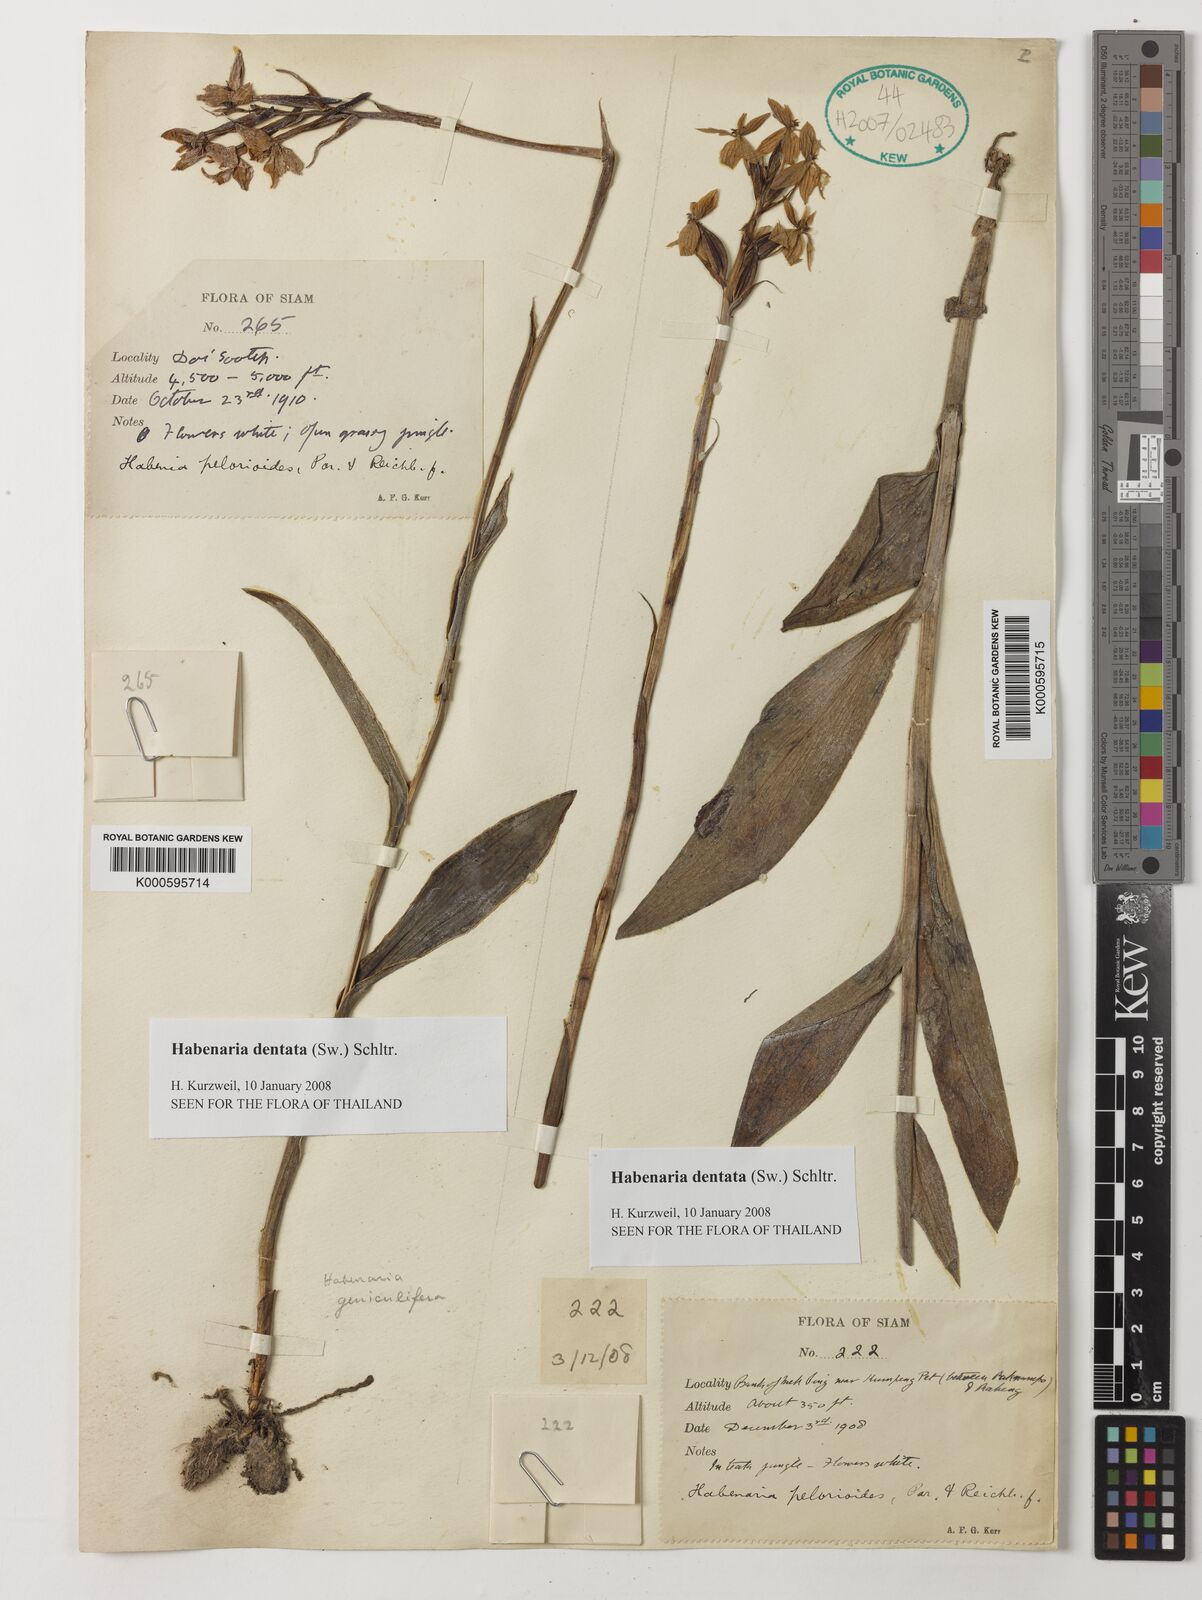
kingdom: Plantae
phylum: Tracheophyta
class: Liliopsida
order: Asparagales
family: Orchidaceae
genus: Habenaria
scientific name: Habenaria dentata
